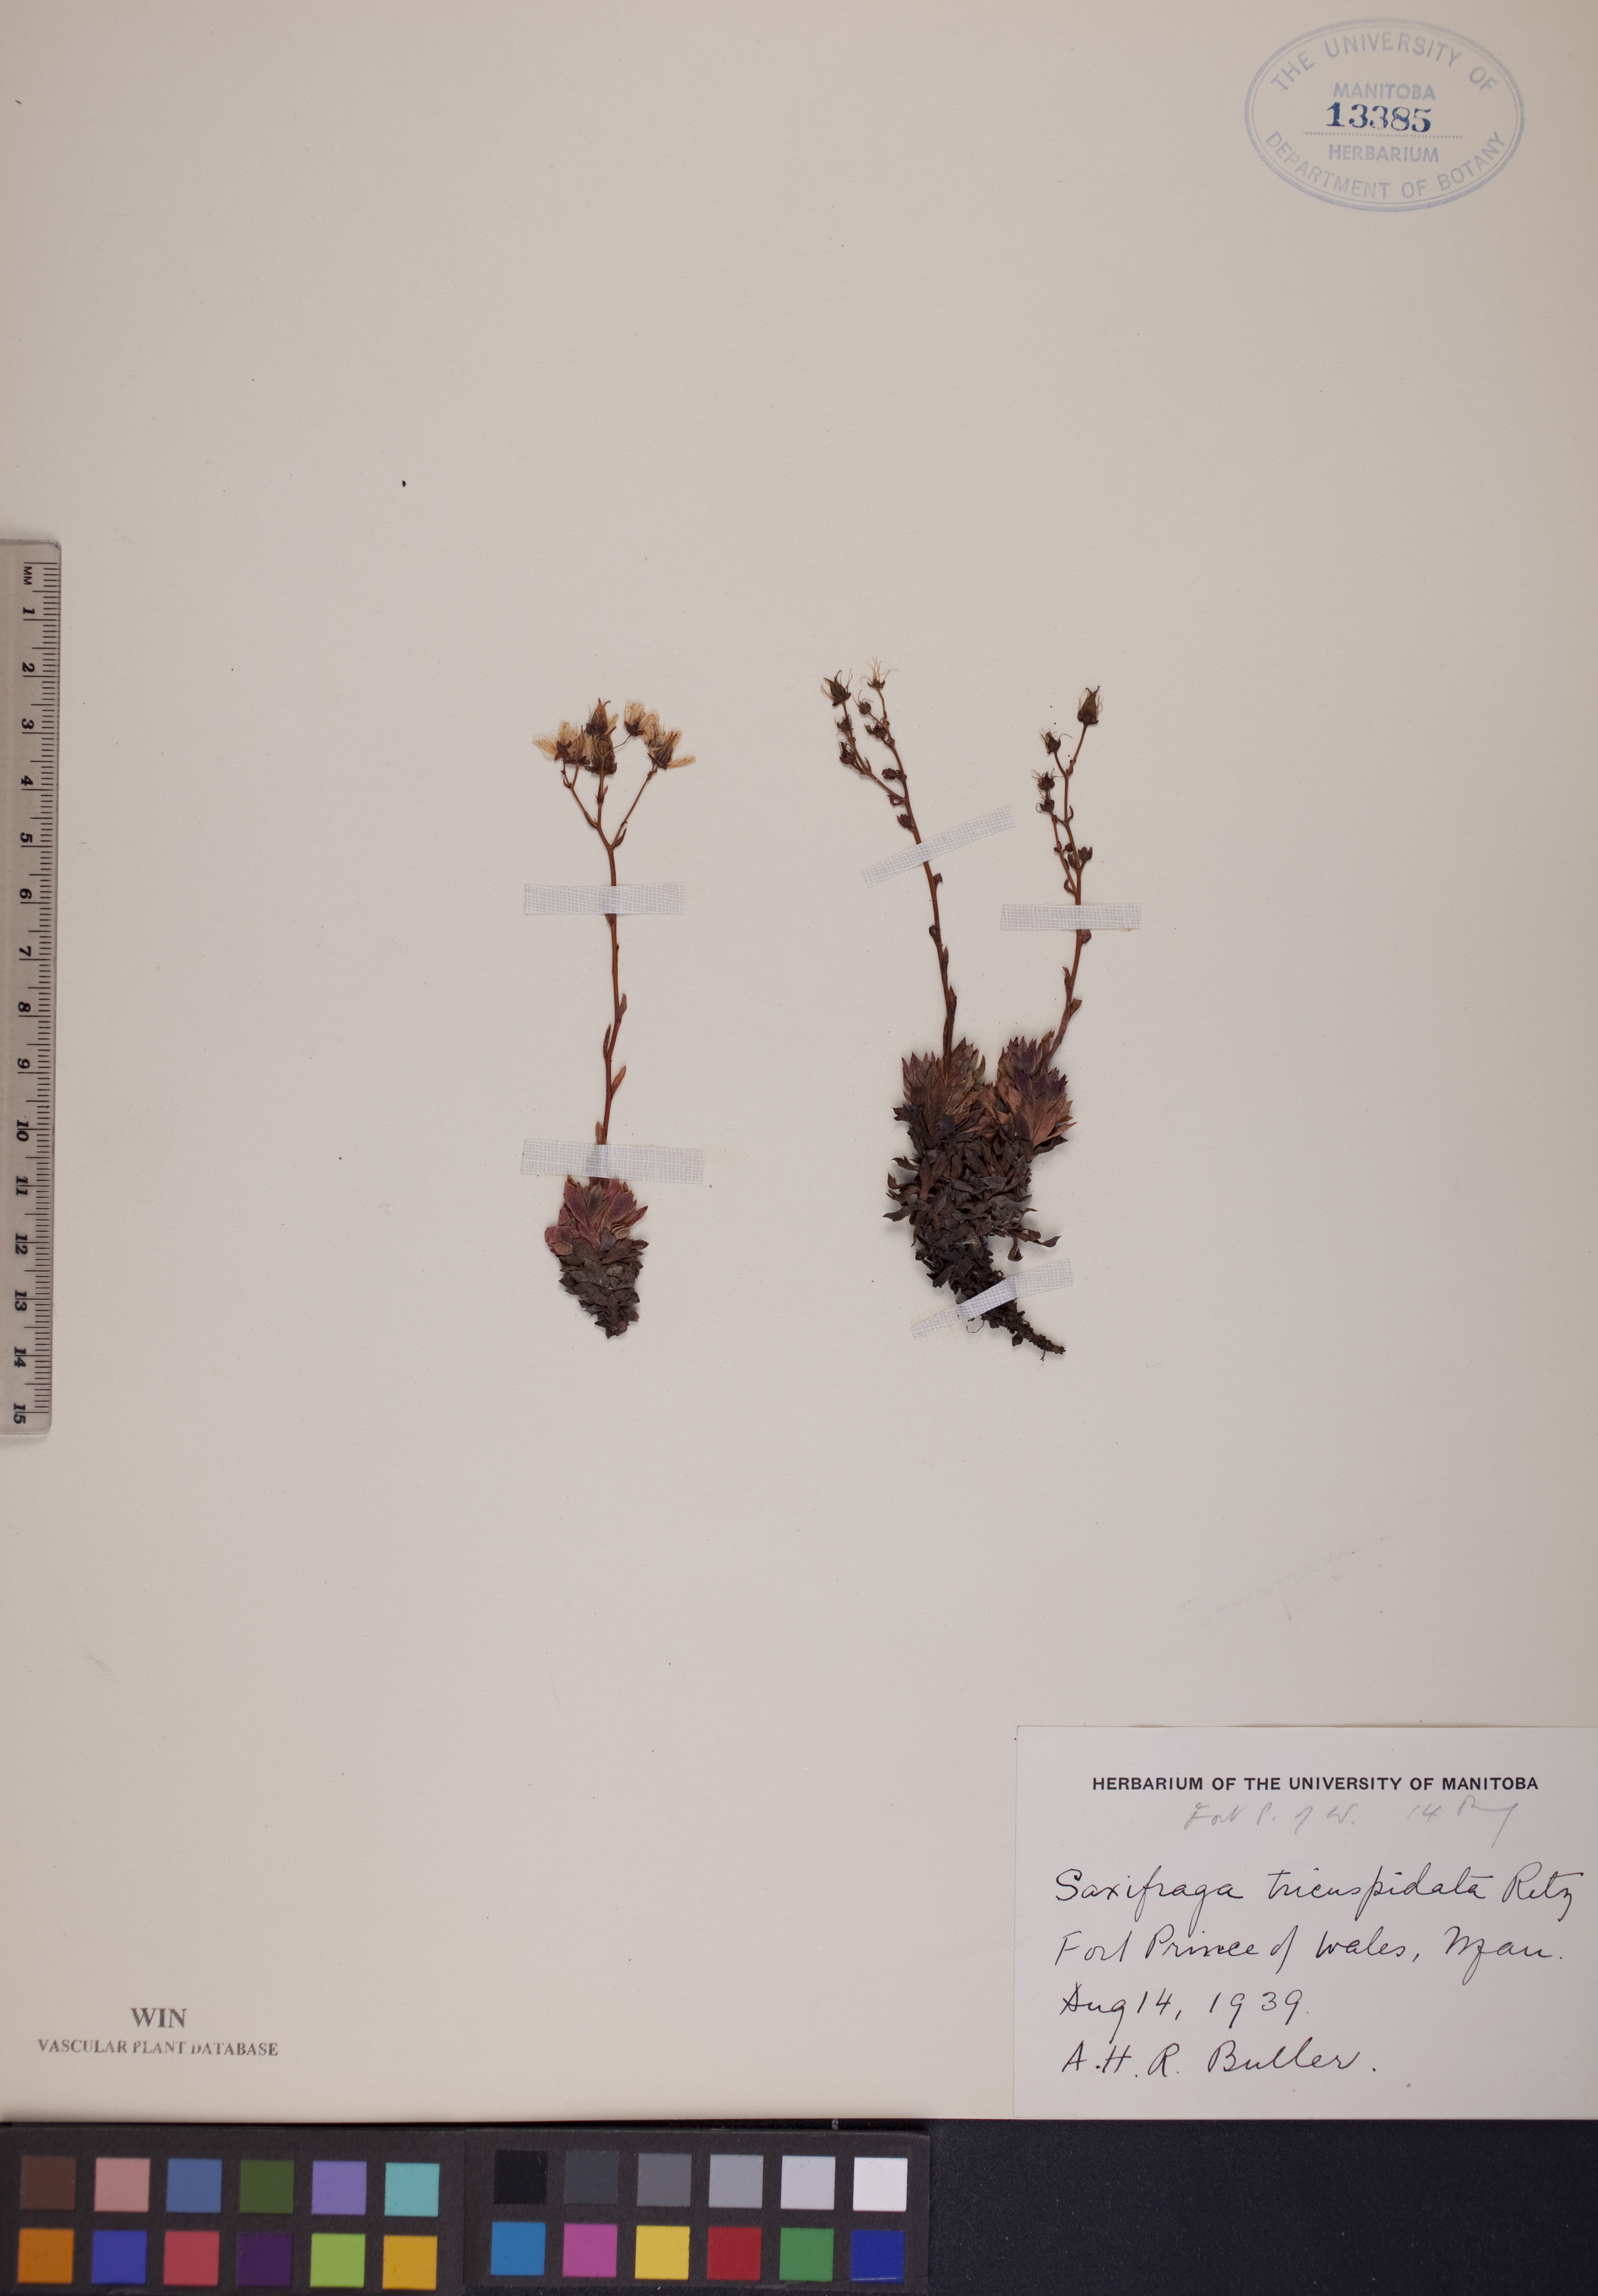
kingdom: Plantae
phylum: Tracheophyta
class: Magnoliopsida
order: Saxifragales
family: Saxifragaceae
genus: Saxifraga
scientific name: Saxifraga tricuspidata
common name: Prickly saxifrage
